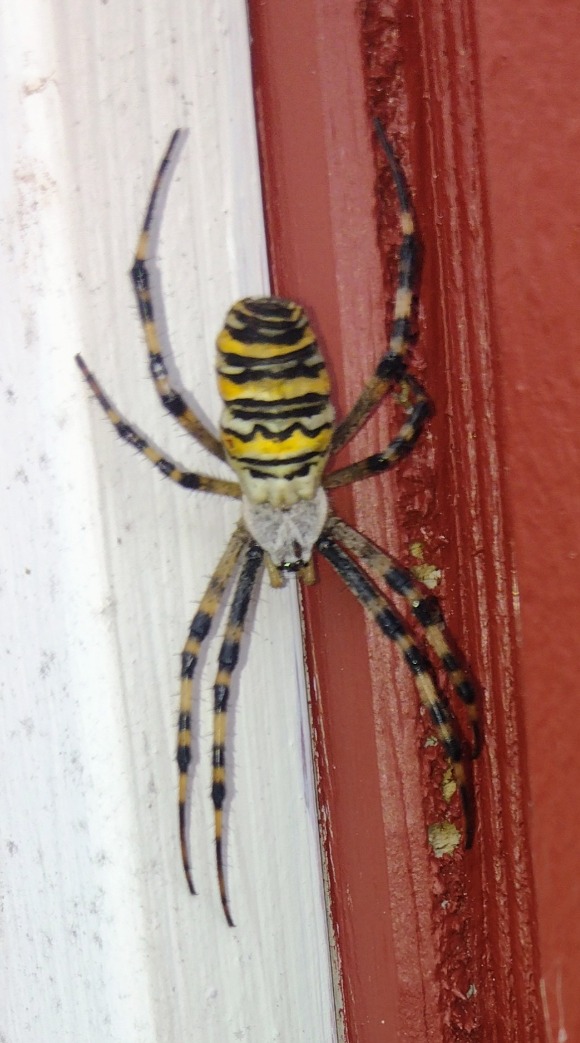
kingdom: Animalia
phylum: Arthropoda
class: Arachnida
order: Araneae
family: Araneidae
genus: Argiope
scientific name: Argiope bruennichi
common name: Hvepseedderkop
